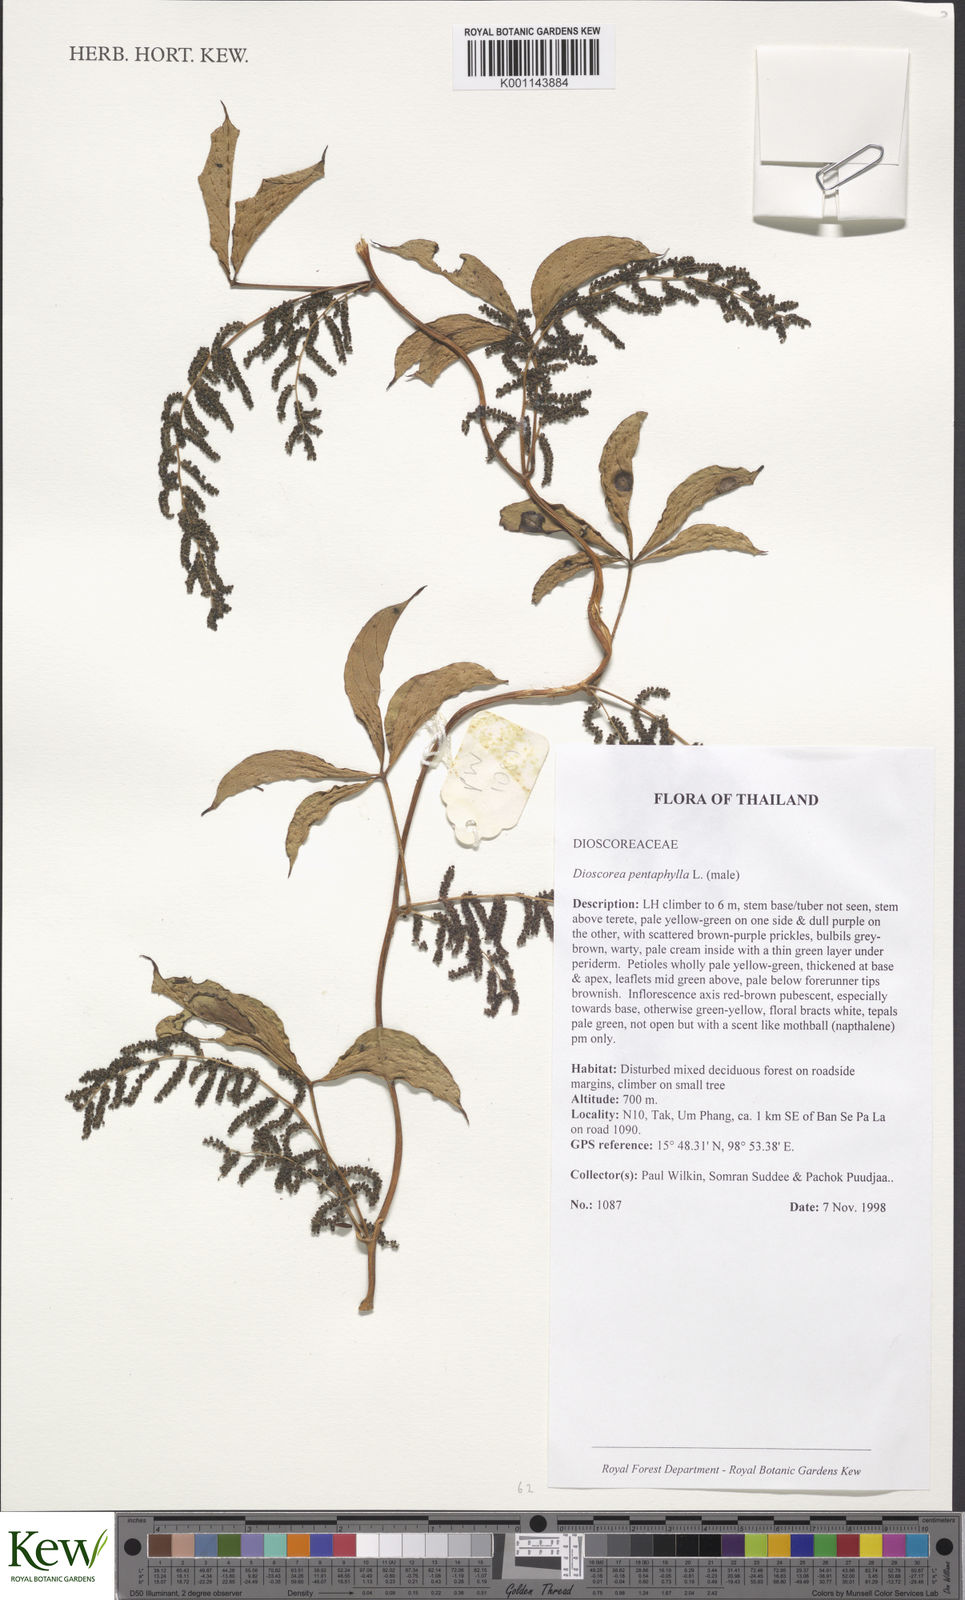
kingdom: Plantae
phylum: Tracheophyta
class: Liliopsida
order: Dioscoreales
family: Dioscoreaceae
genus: Dioscorea
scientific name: Dioscorea pentaphylla
